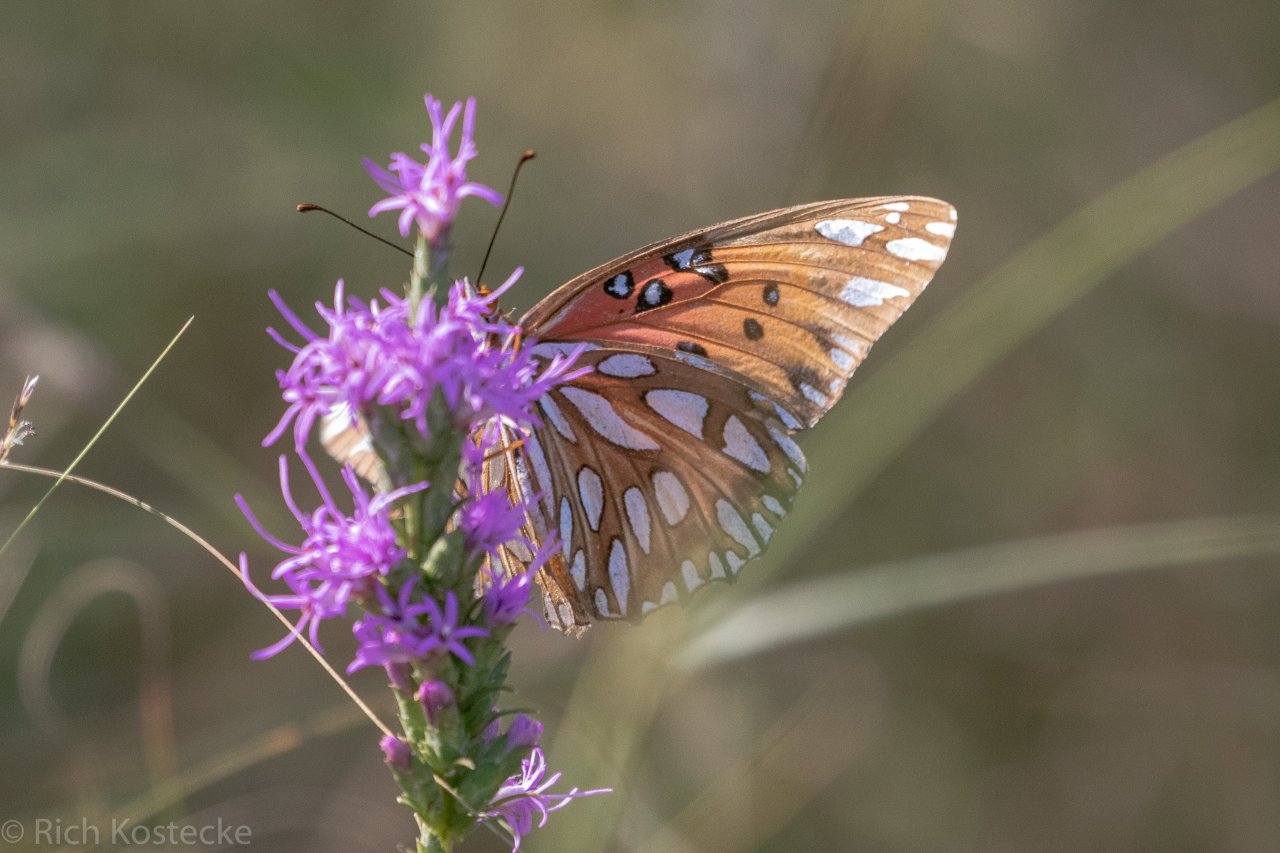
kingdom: Animalia
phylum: Arthropoda
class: Insecta
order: Lepidoptera
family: Nymphalidae
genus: Dione
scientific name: Dione vanillae
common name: Gulf Fritillary
